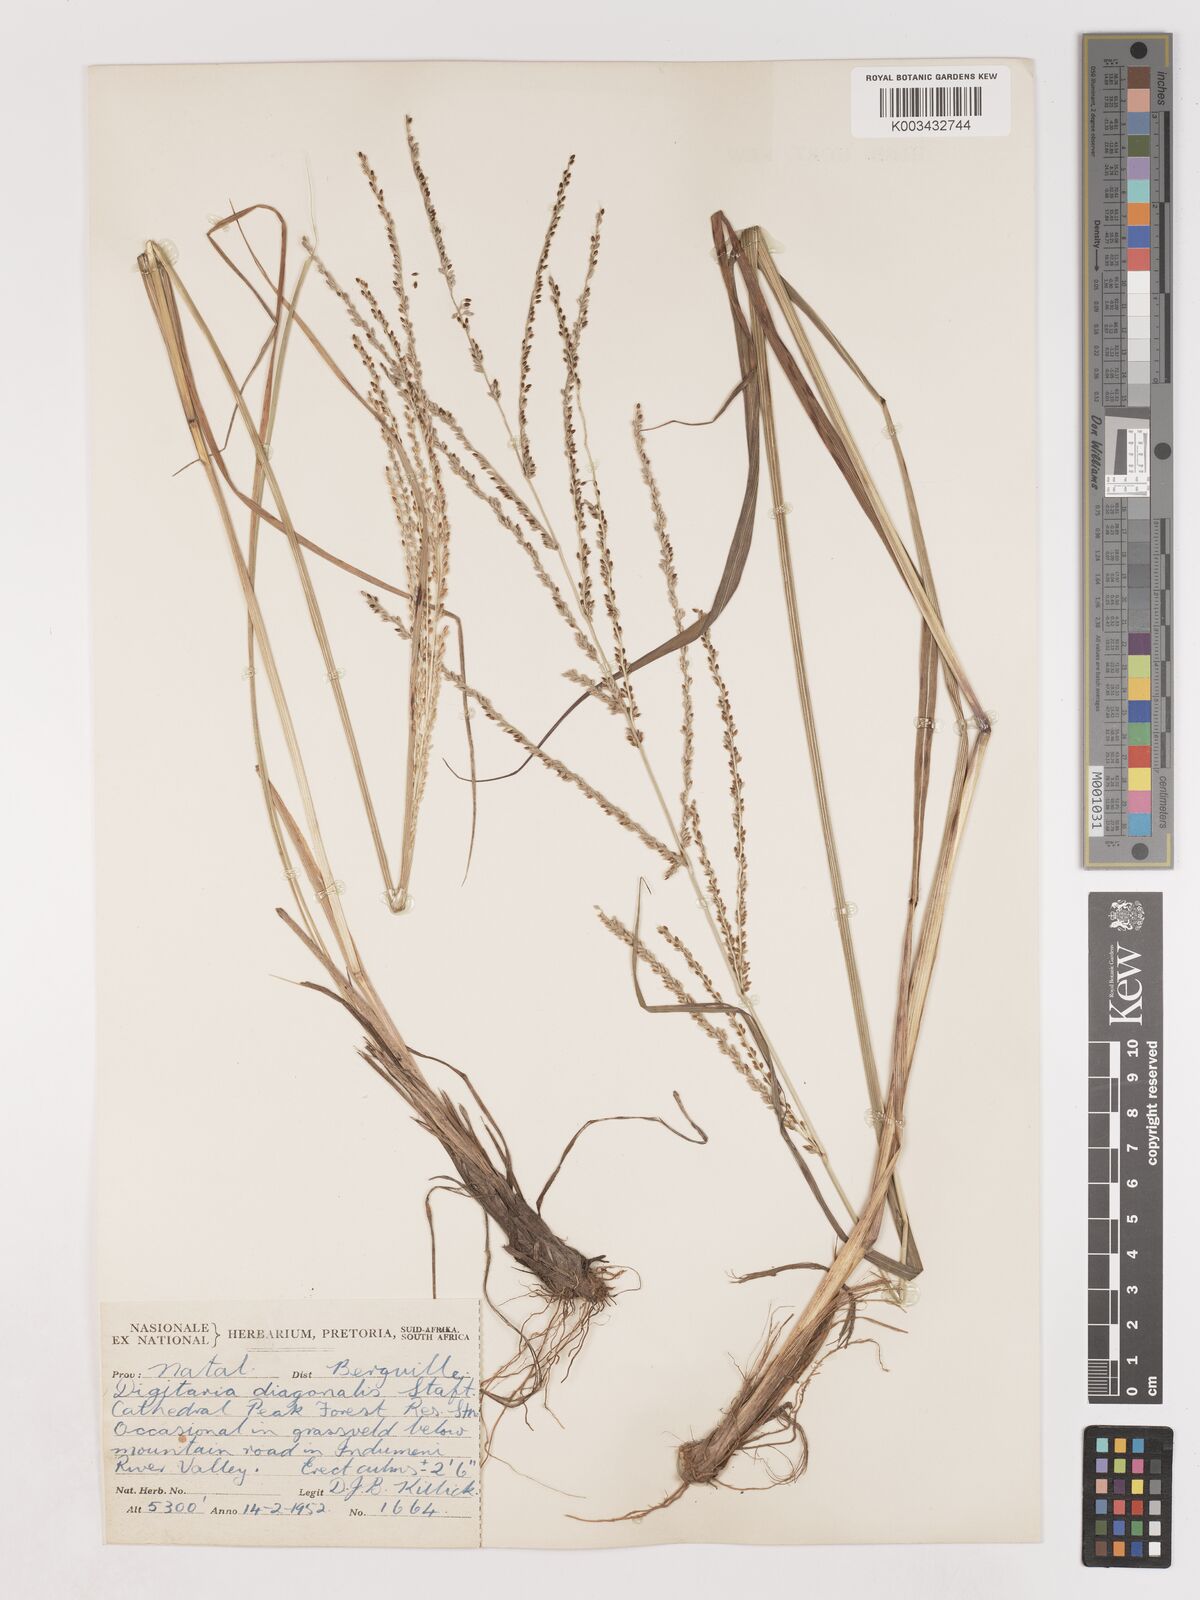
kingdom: Plantae
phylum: Tracheophyta
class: Liliopsida
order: Poales
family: Poaceae
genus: Digitaria
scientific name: Digitaria diagonalis
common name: Brown-seed finger grass
